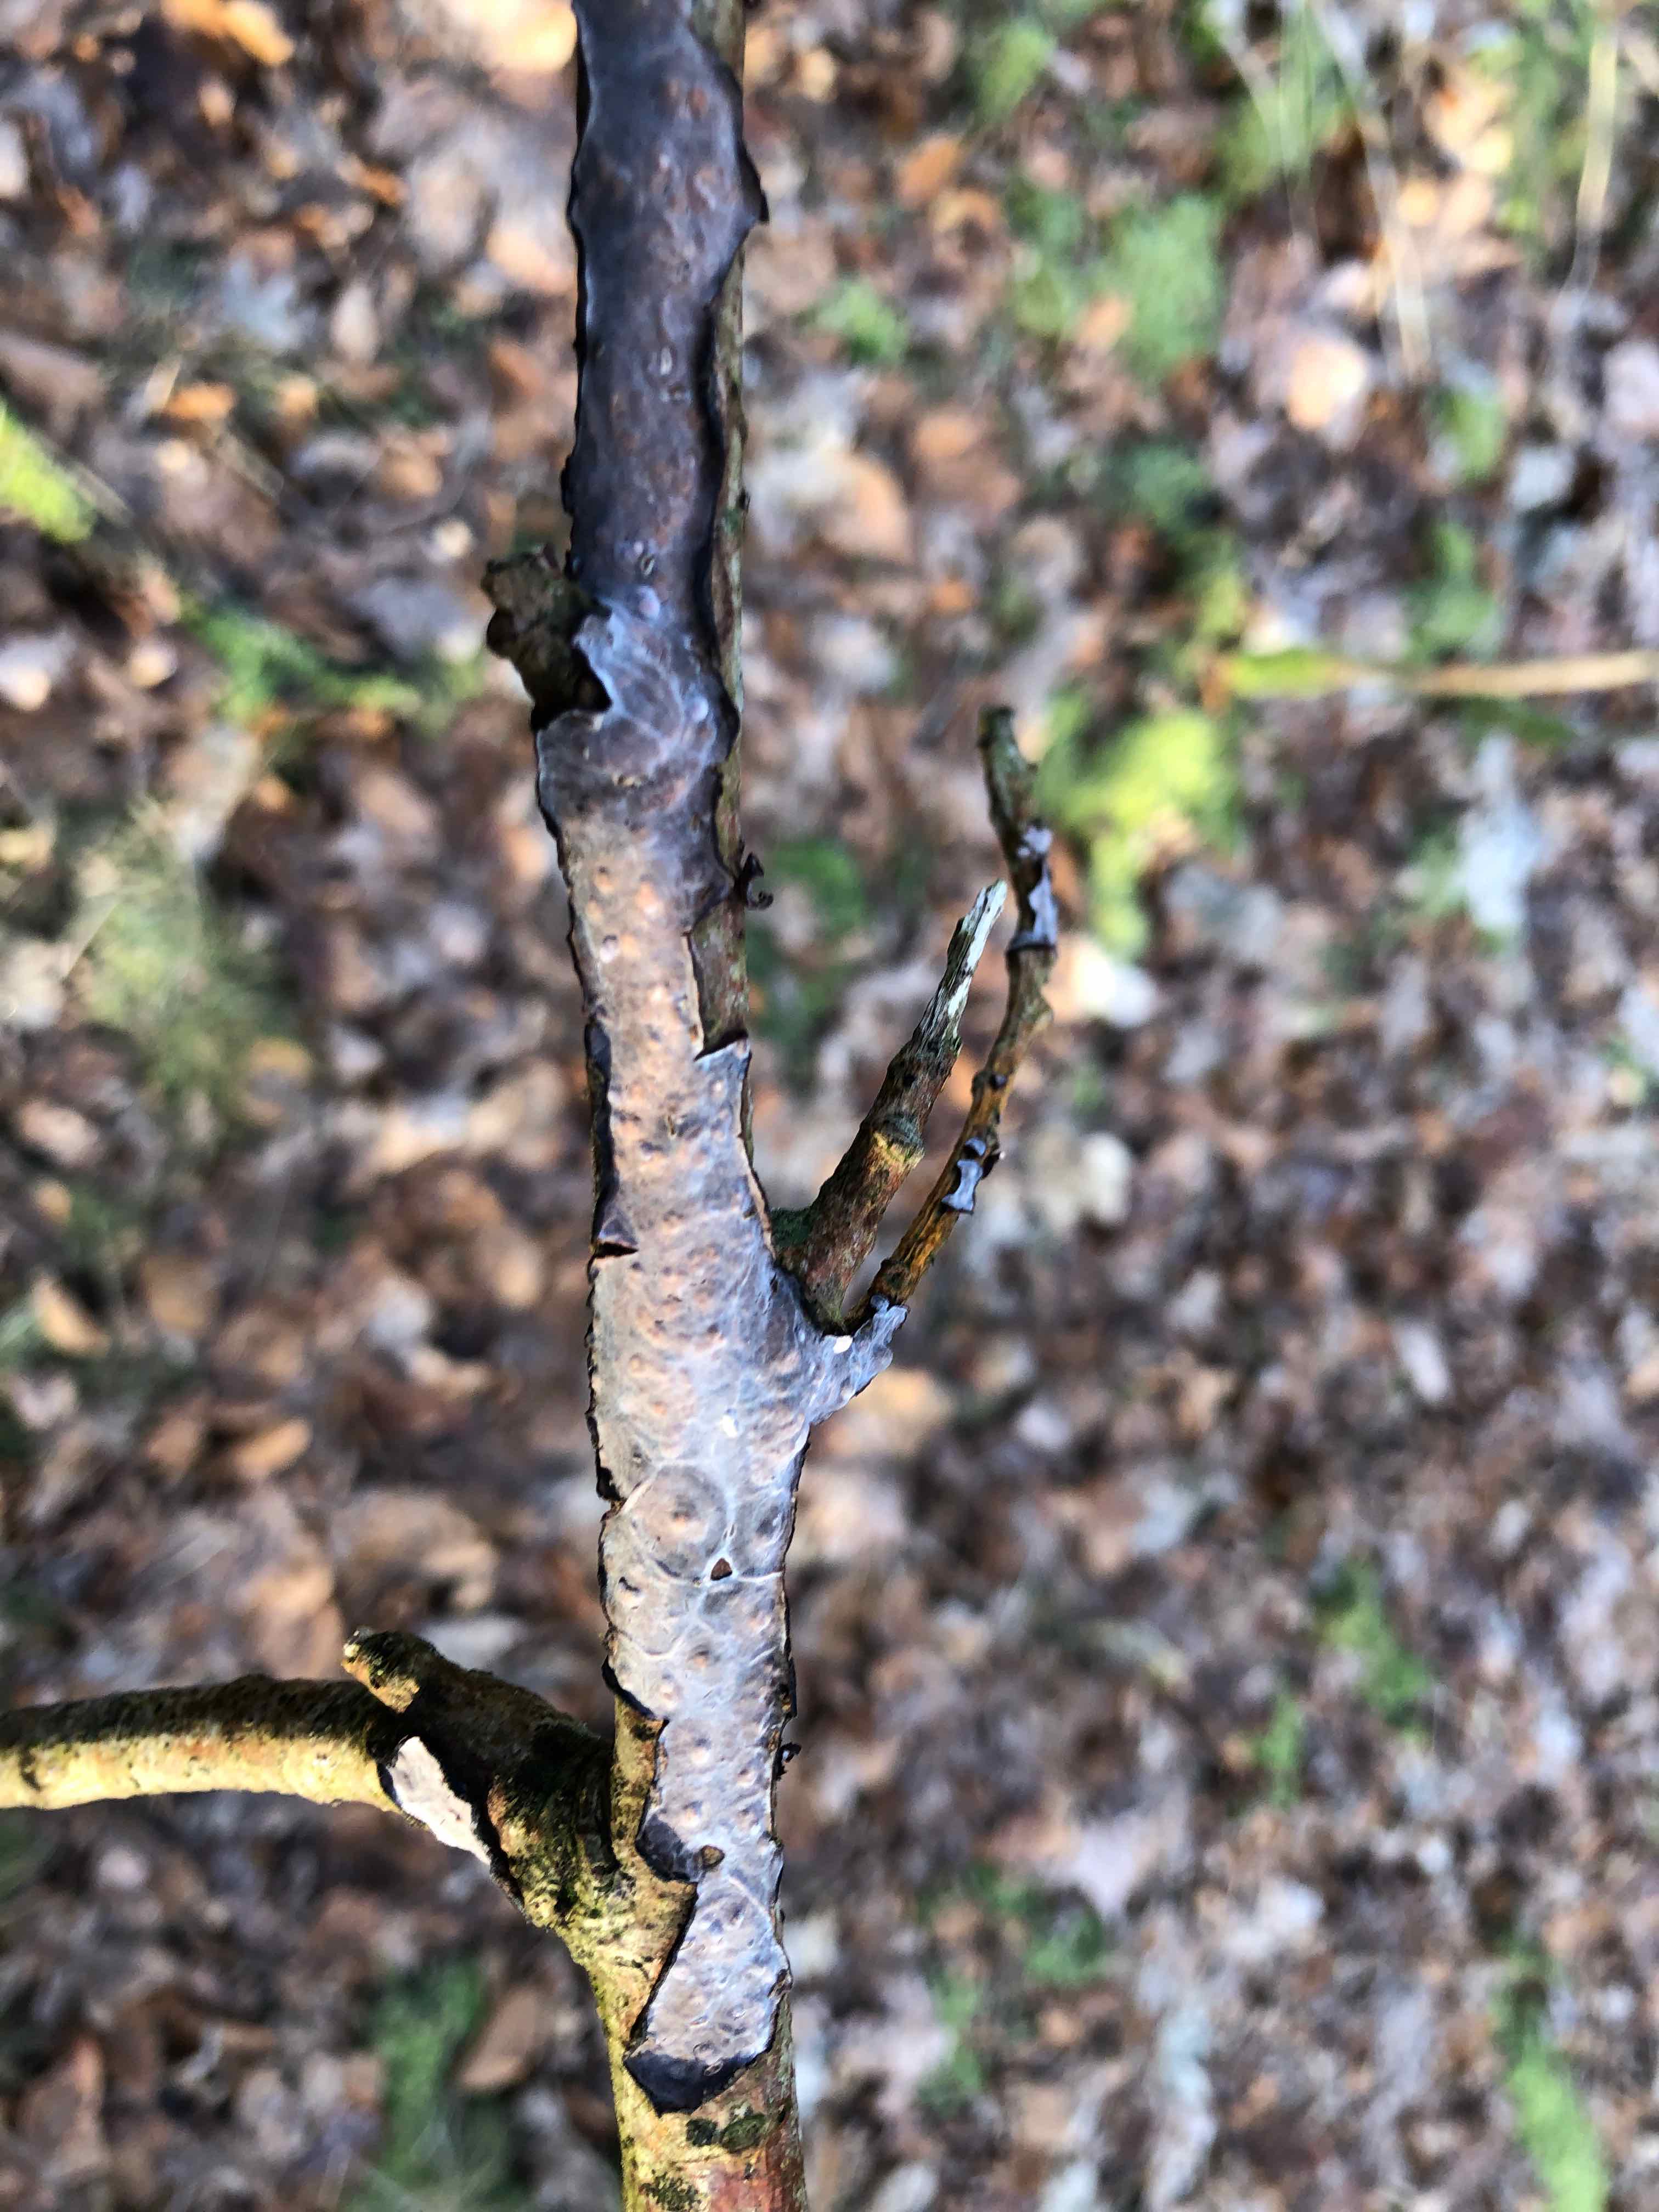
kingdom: Fungi
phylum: Basidiomycota
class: Agaricomycetes
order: Russulales
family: Peniophoraceae
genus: Peniophora
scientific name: Peniophora quercina
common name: ege-voksskind
